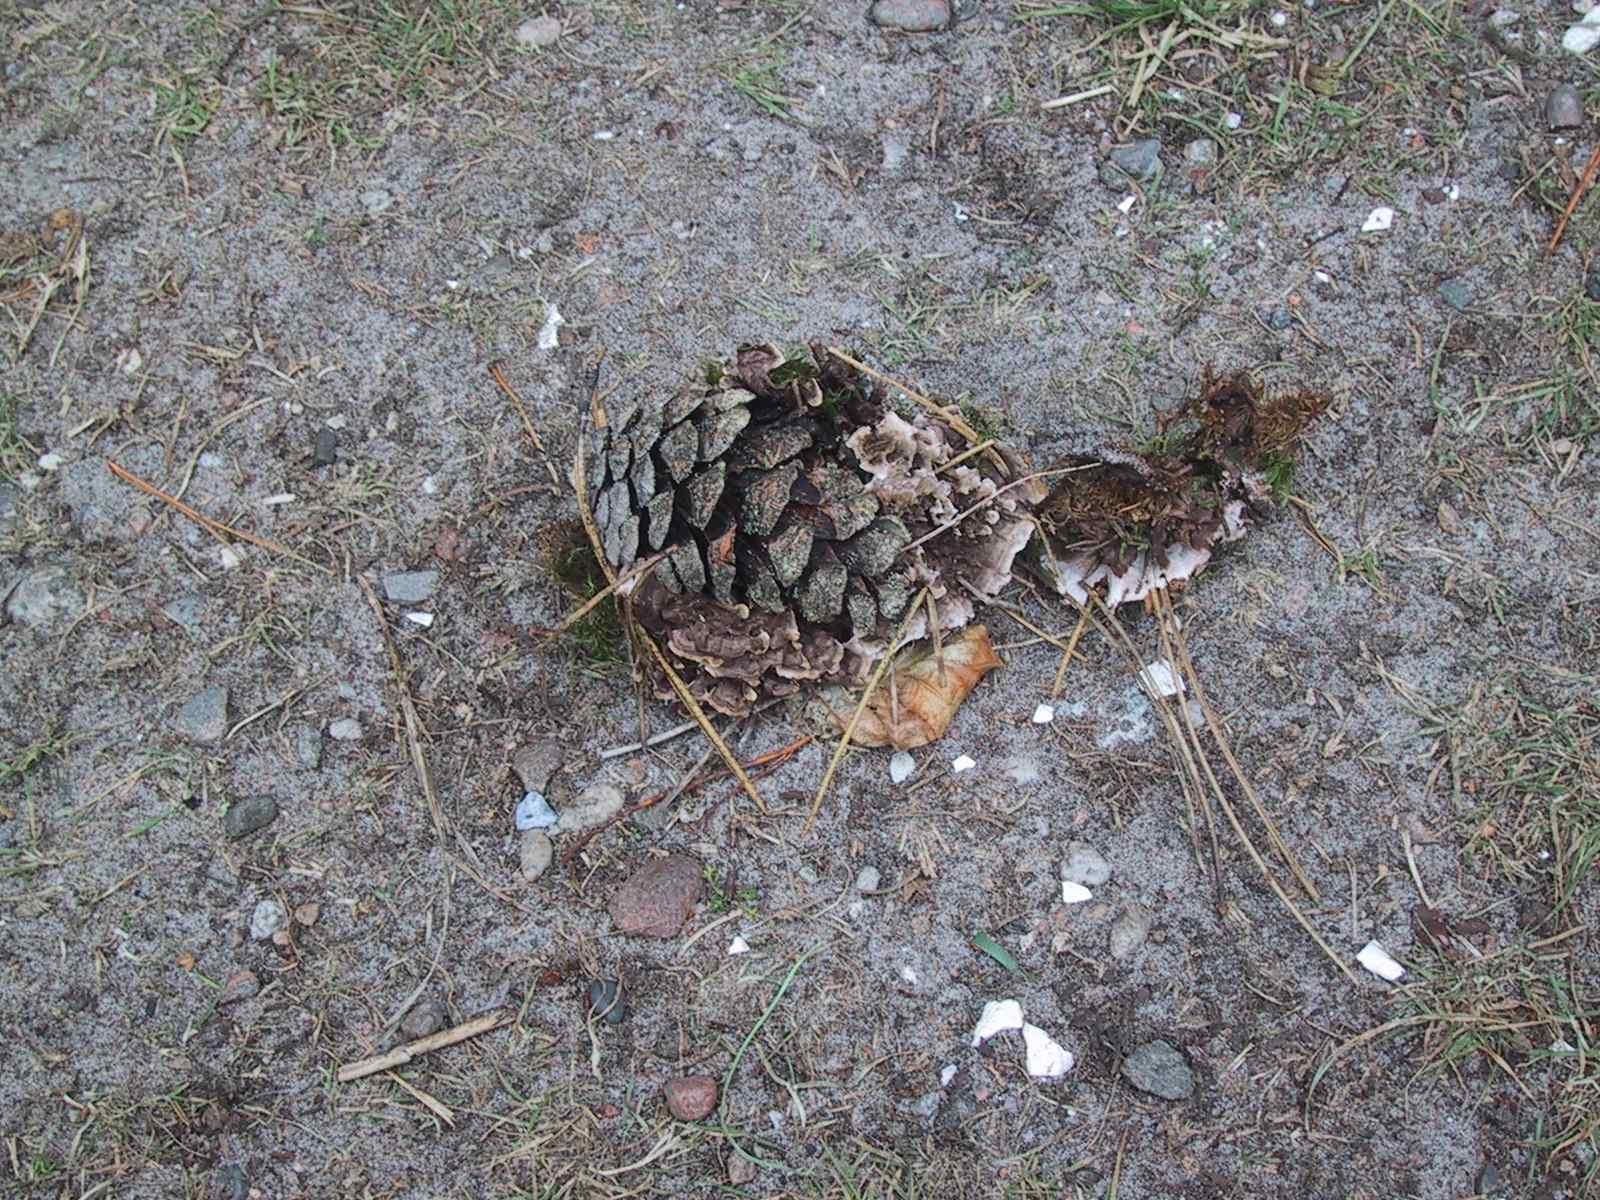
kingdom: Fungi
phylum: Basidiomycota
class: Agaricomycetes
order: Thelephorales
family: Thelephoraceae
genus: Phellodon
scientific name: Phellodon tomentosus
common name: tragtformet duftpigsvamp
